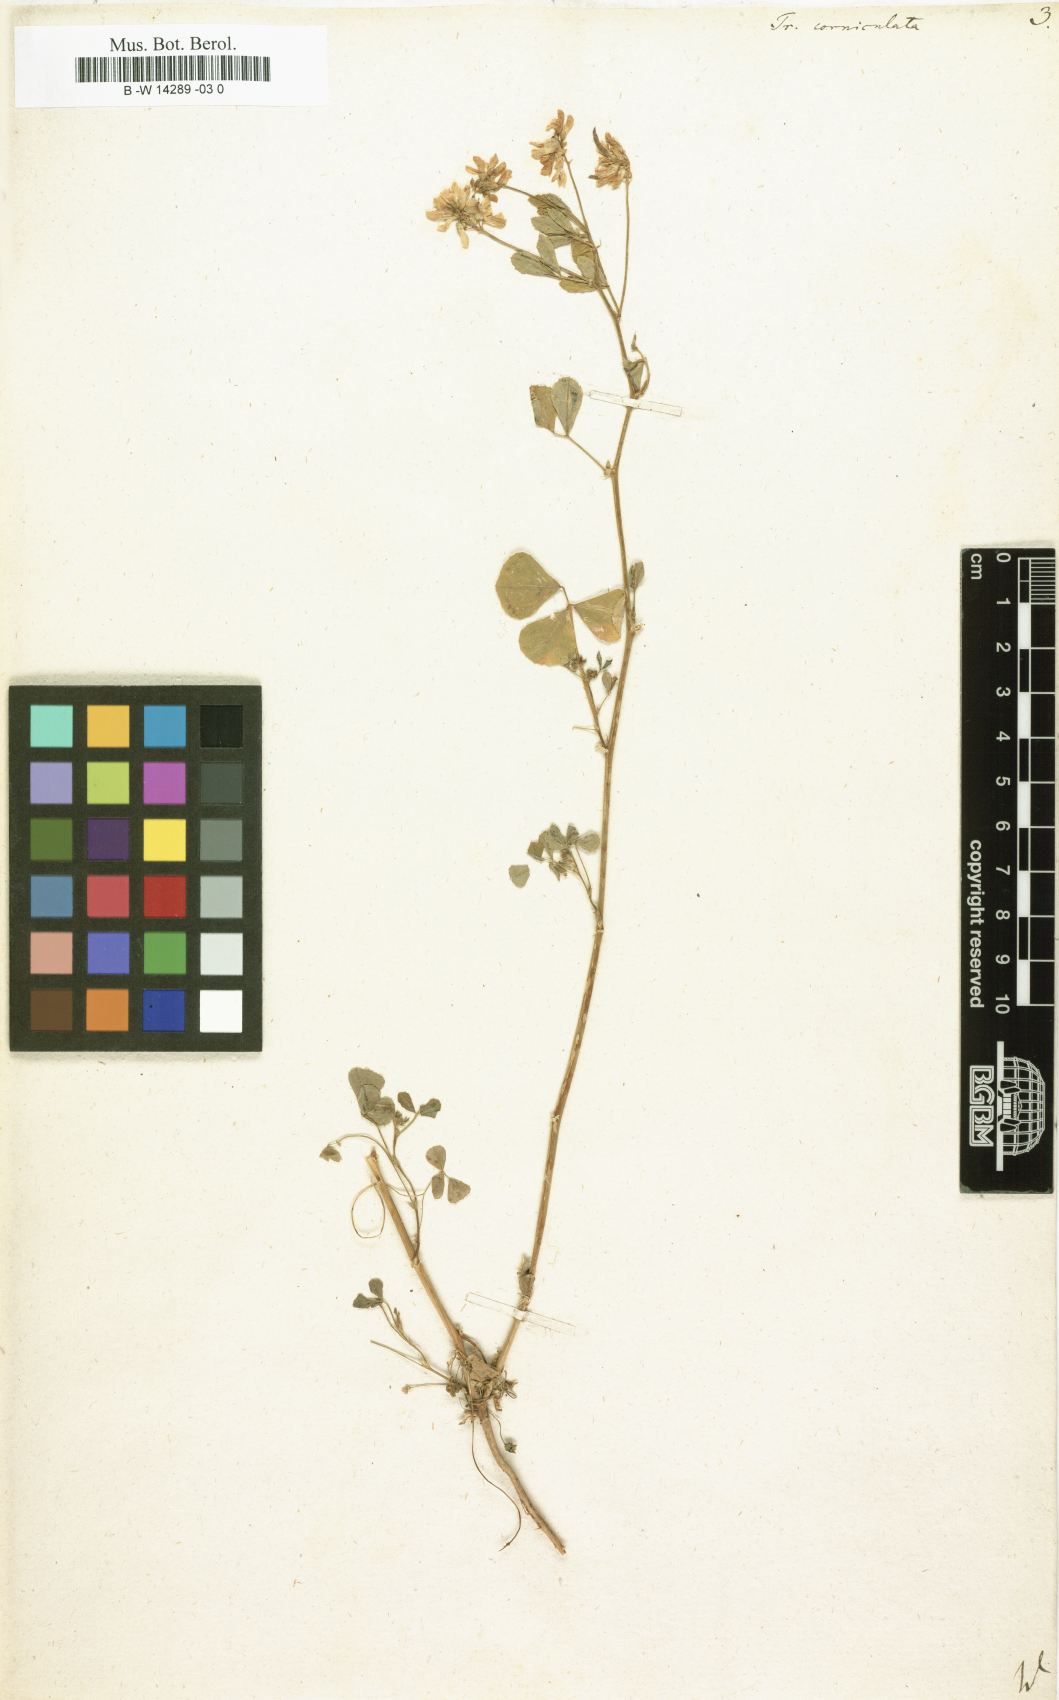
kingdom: Plantae
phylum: Tracheophyta
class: Magnoliopsida
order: Fabales
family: Fabaceae
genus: Trigonella
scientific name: Trigonella balansae
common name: Sickle-fruited fenugreek
